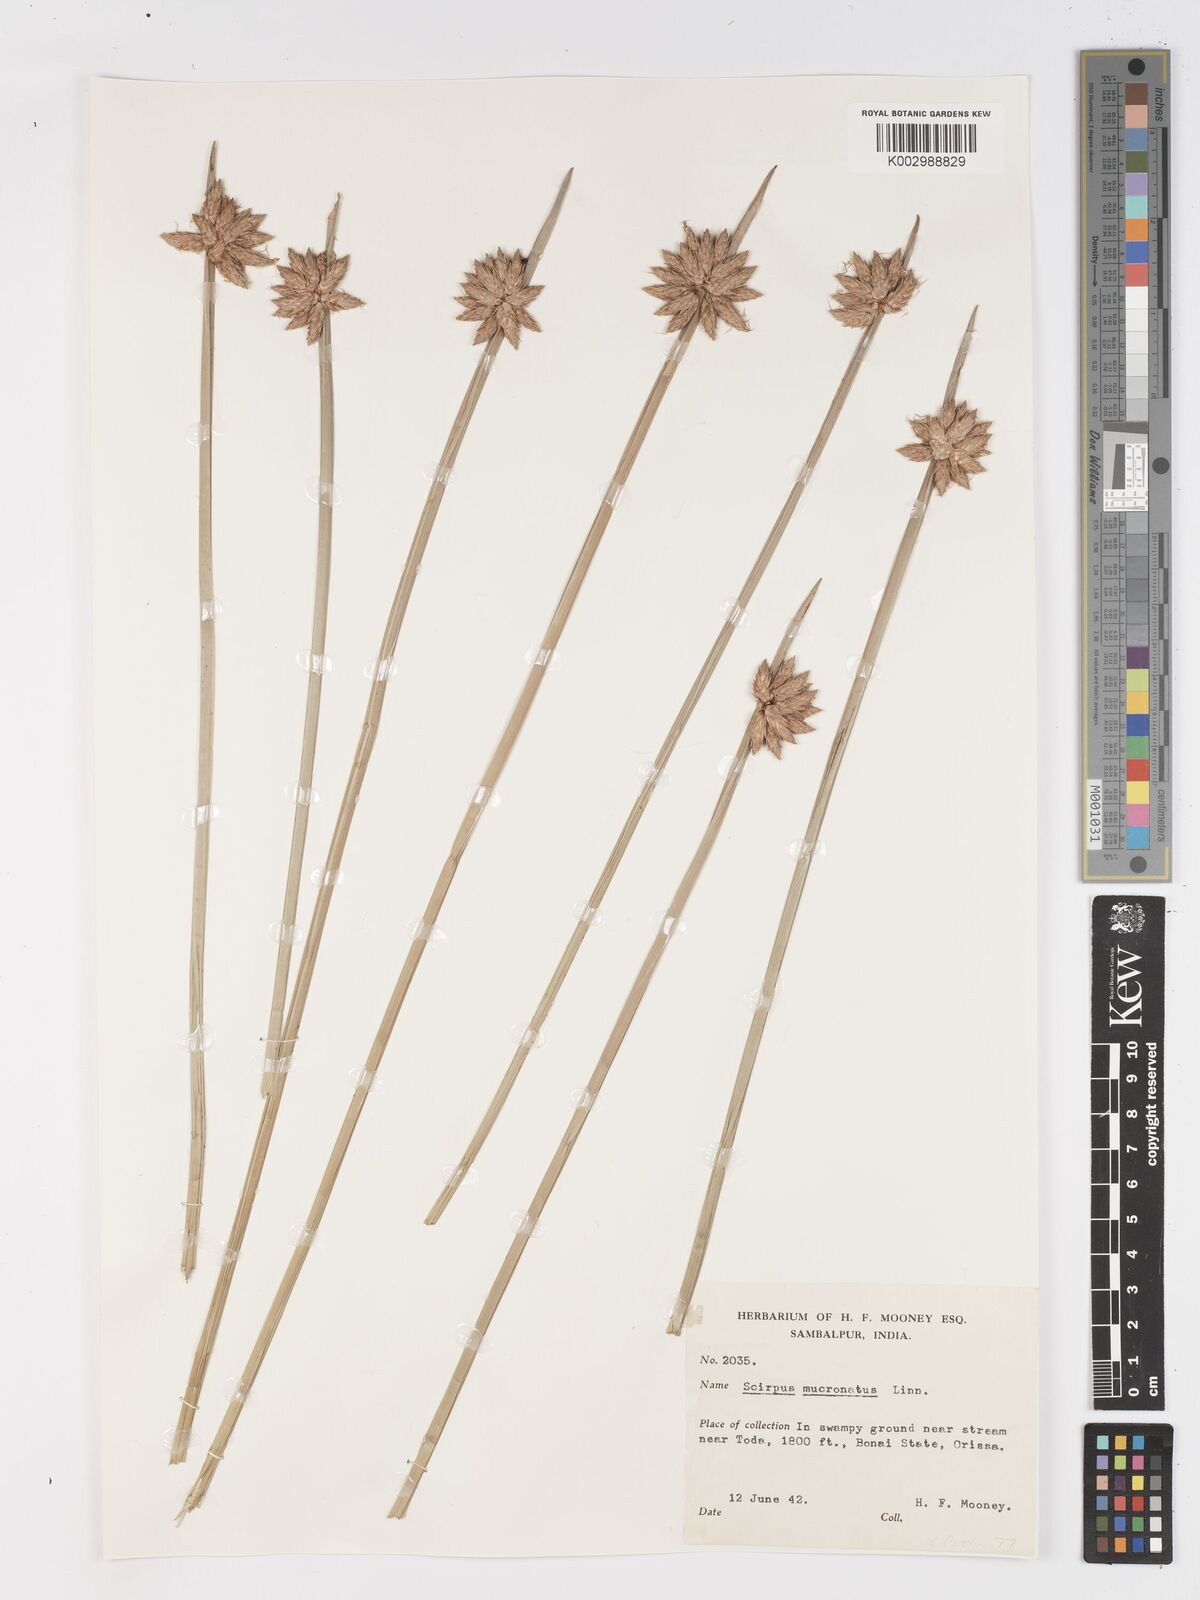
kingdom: Plantae
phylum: Tracheophyta
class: Liliopsida
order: Poales
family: Cyperaceae
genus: Schoenoplectiella
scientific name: Schoenoplectiella mucronata
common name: Bog bulrush
